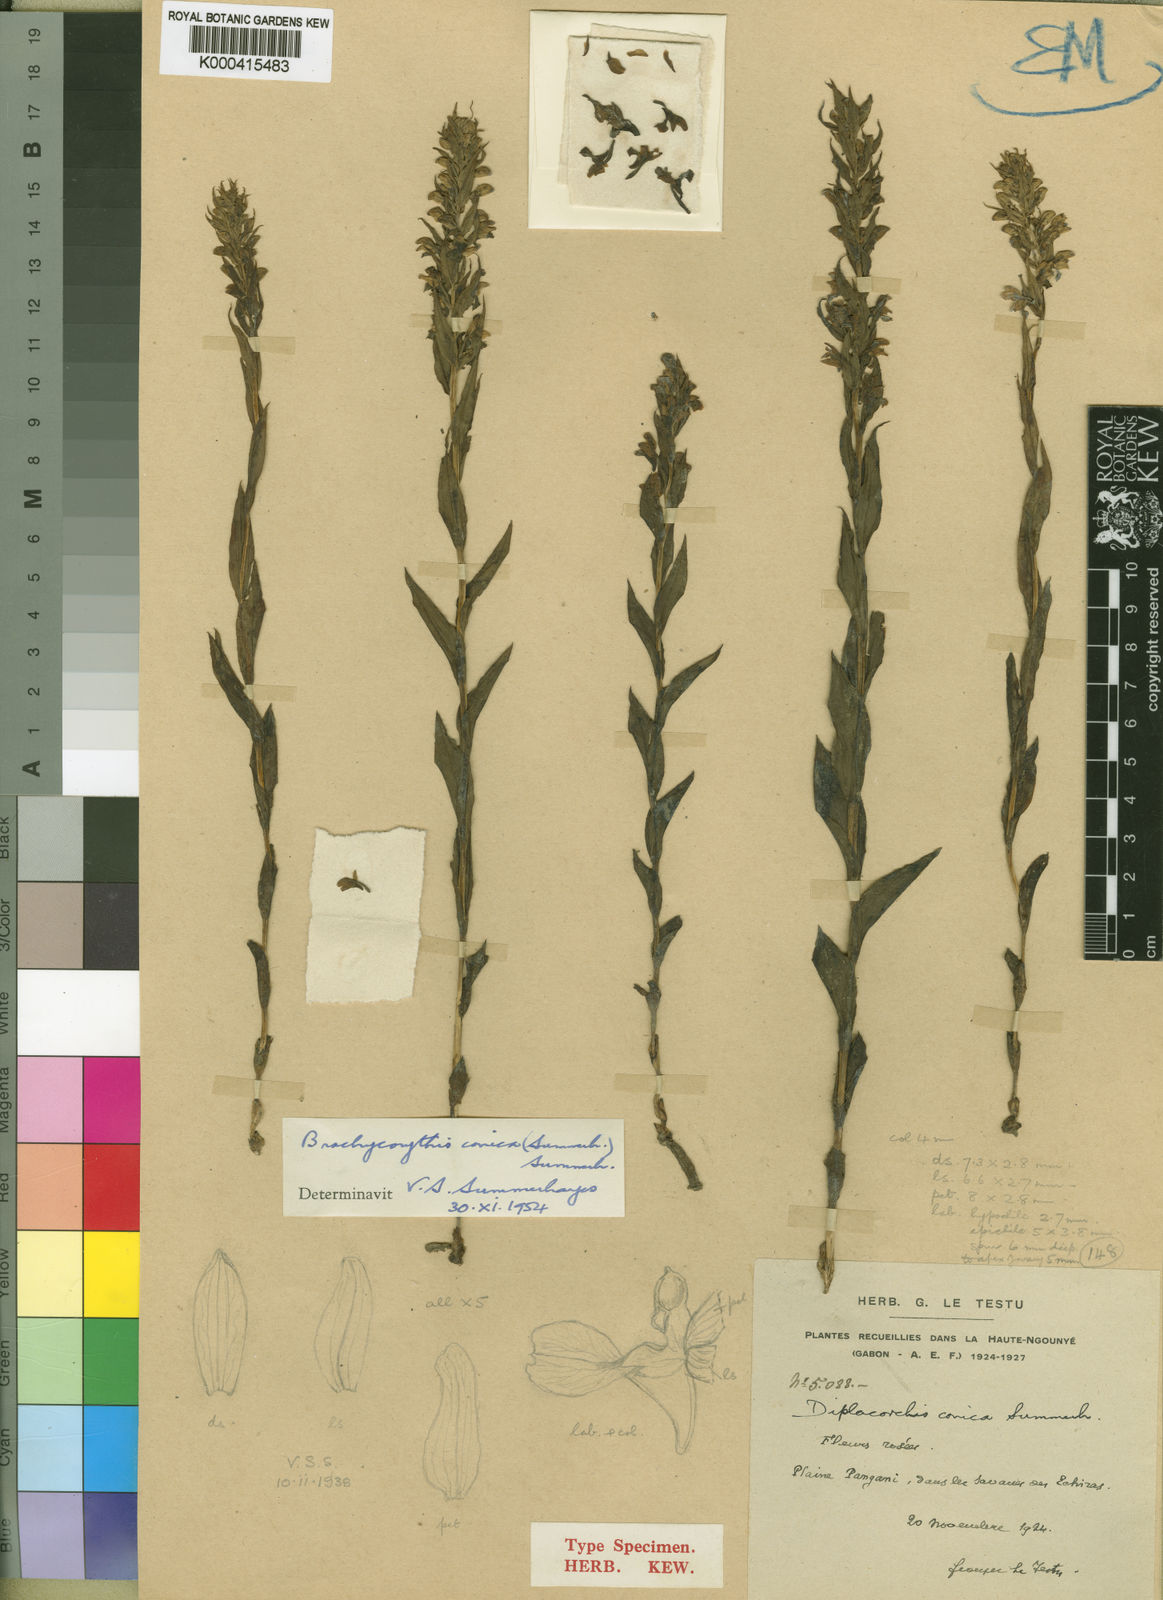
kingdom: Plantae
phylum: Tracheophyta
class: Liliopsida
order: Asparagales
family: Orchidaceae
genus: Brachycorythis
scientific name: Brachycorythis conica
